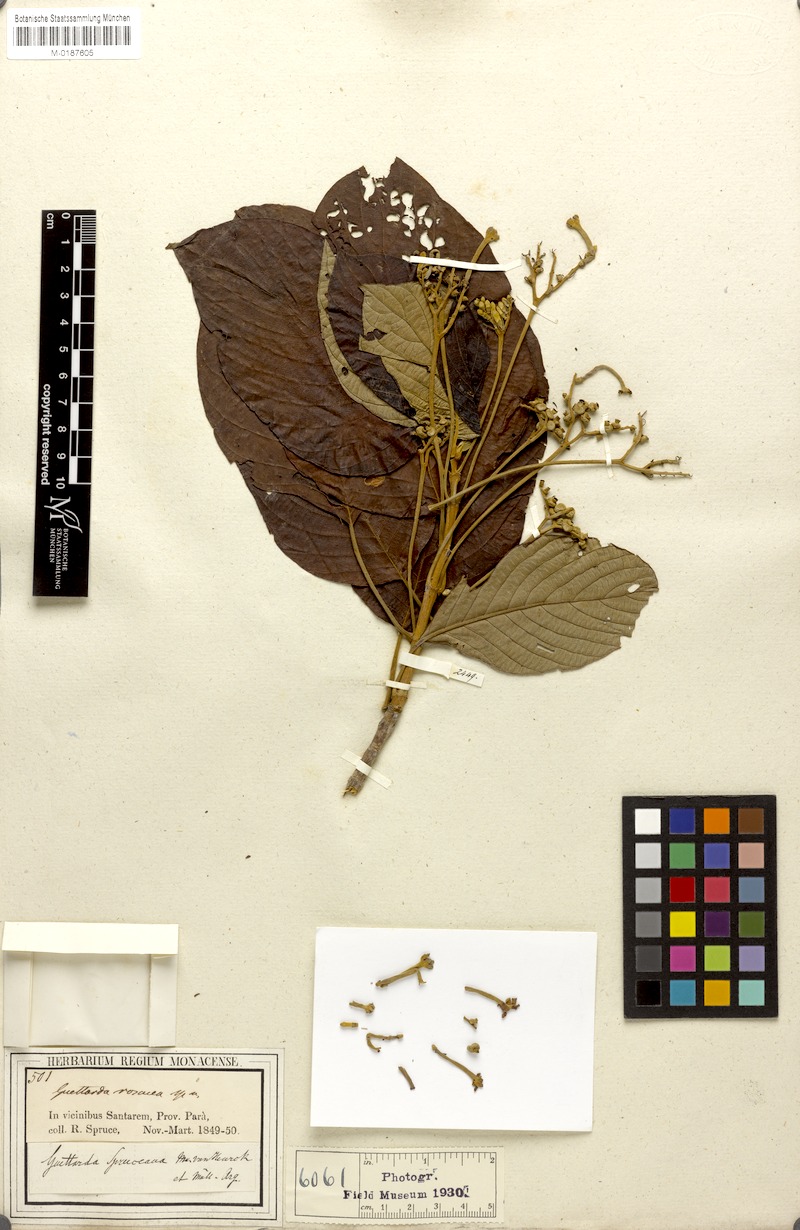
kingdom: Plantae
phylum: Tracheophyta
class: Magnoliopsida
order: Gentianales
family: Rubiaceae
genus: Guettarda
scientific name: Guettarda spruceana
